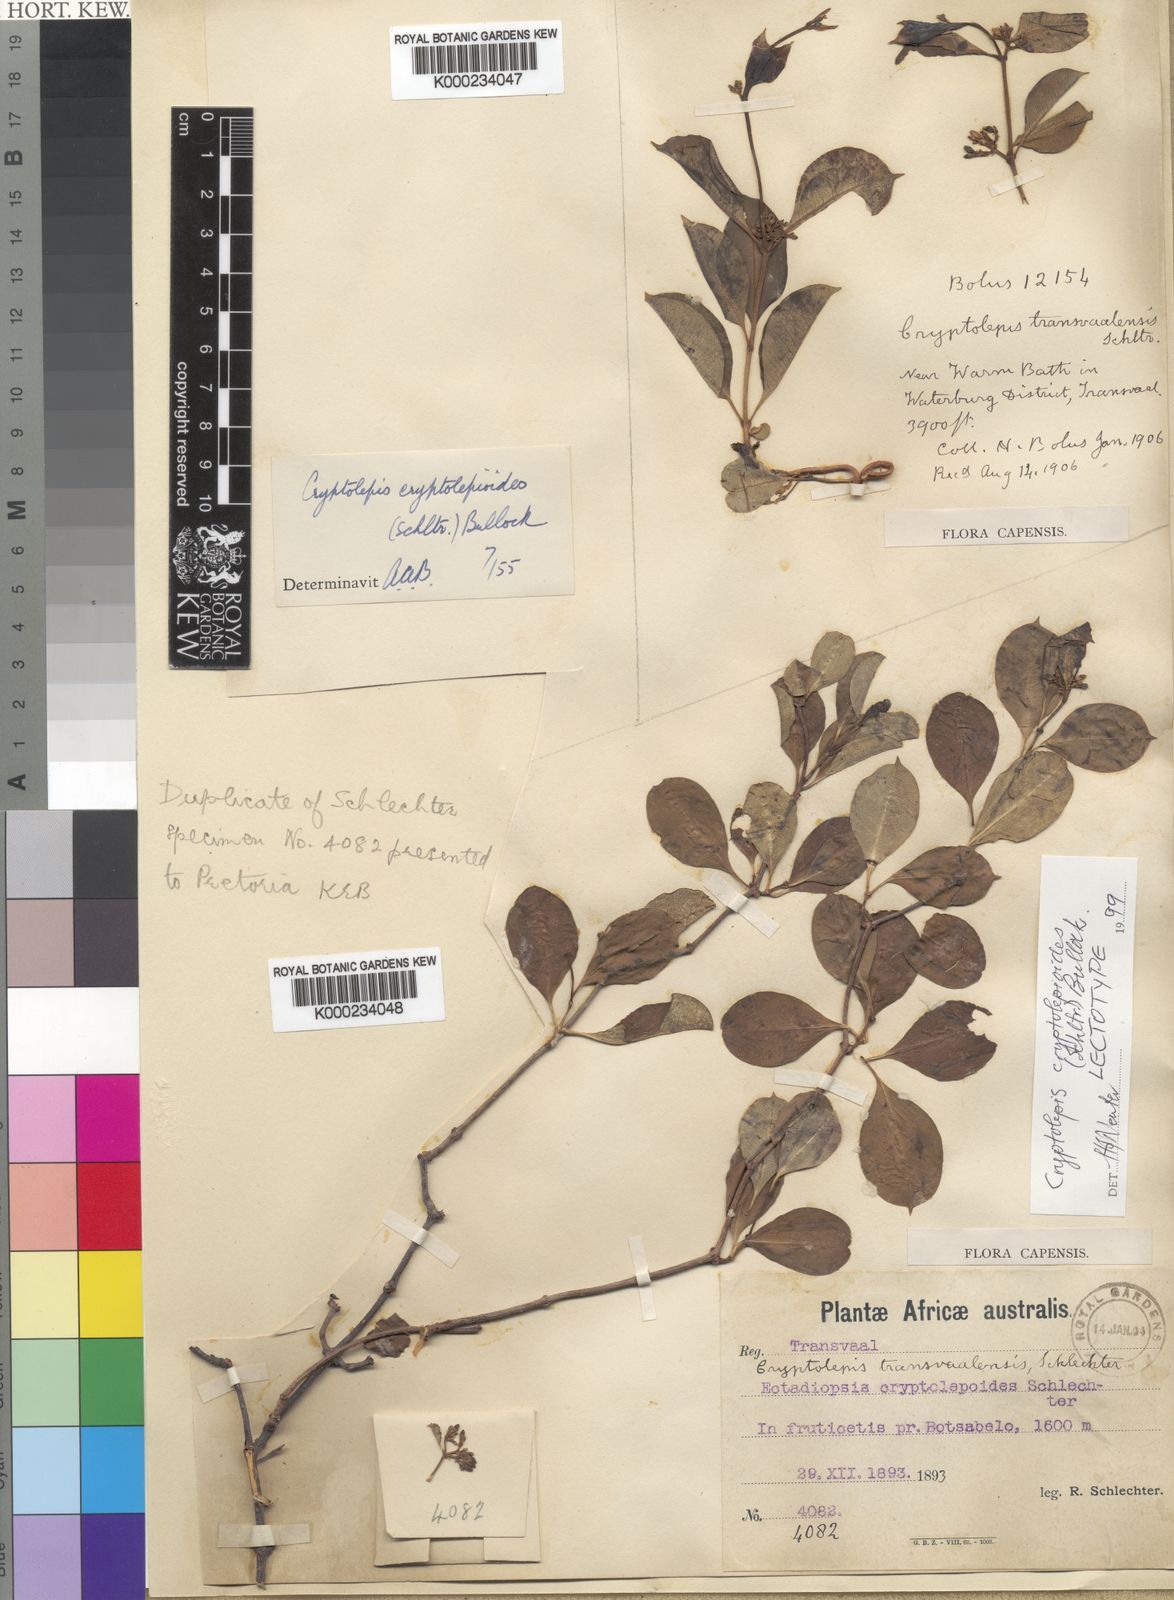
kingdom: Plantae
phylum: Tracheophyta
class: Magnoliopsida
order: Gentianales
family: Apocynaceae
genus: Cryptolepis
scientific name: Cryptolepis cryptolepioides
